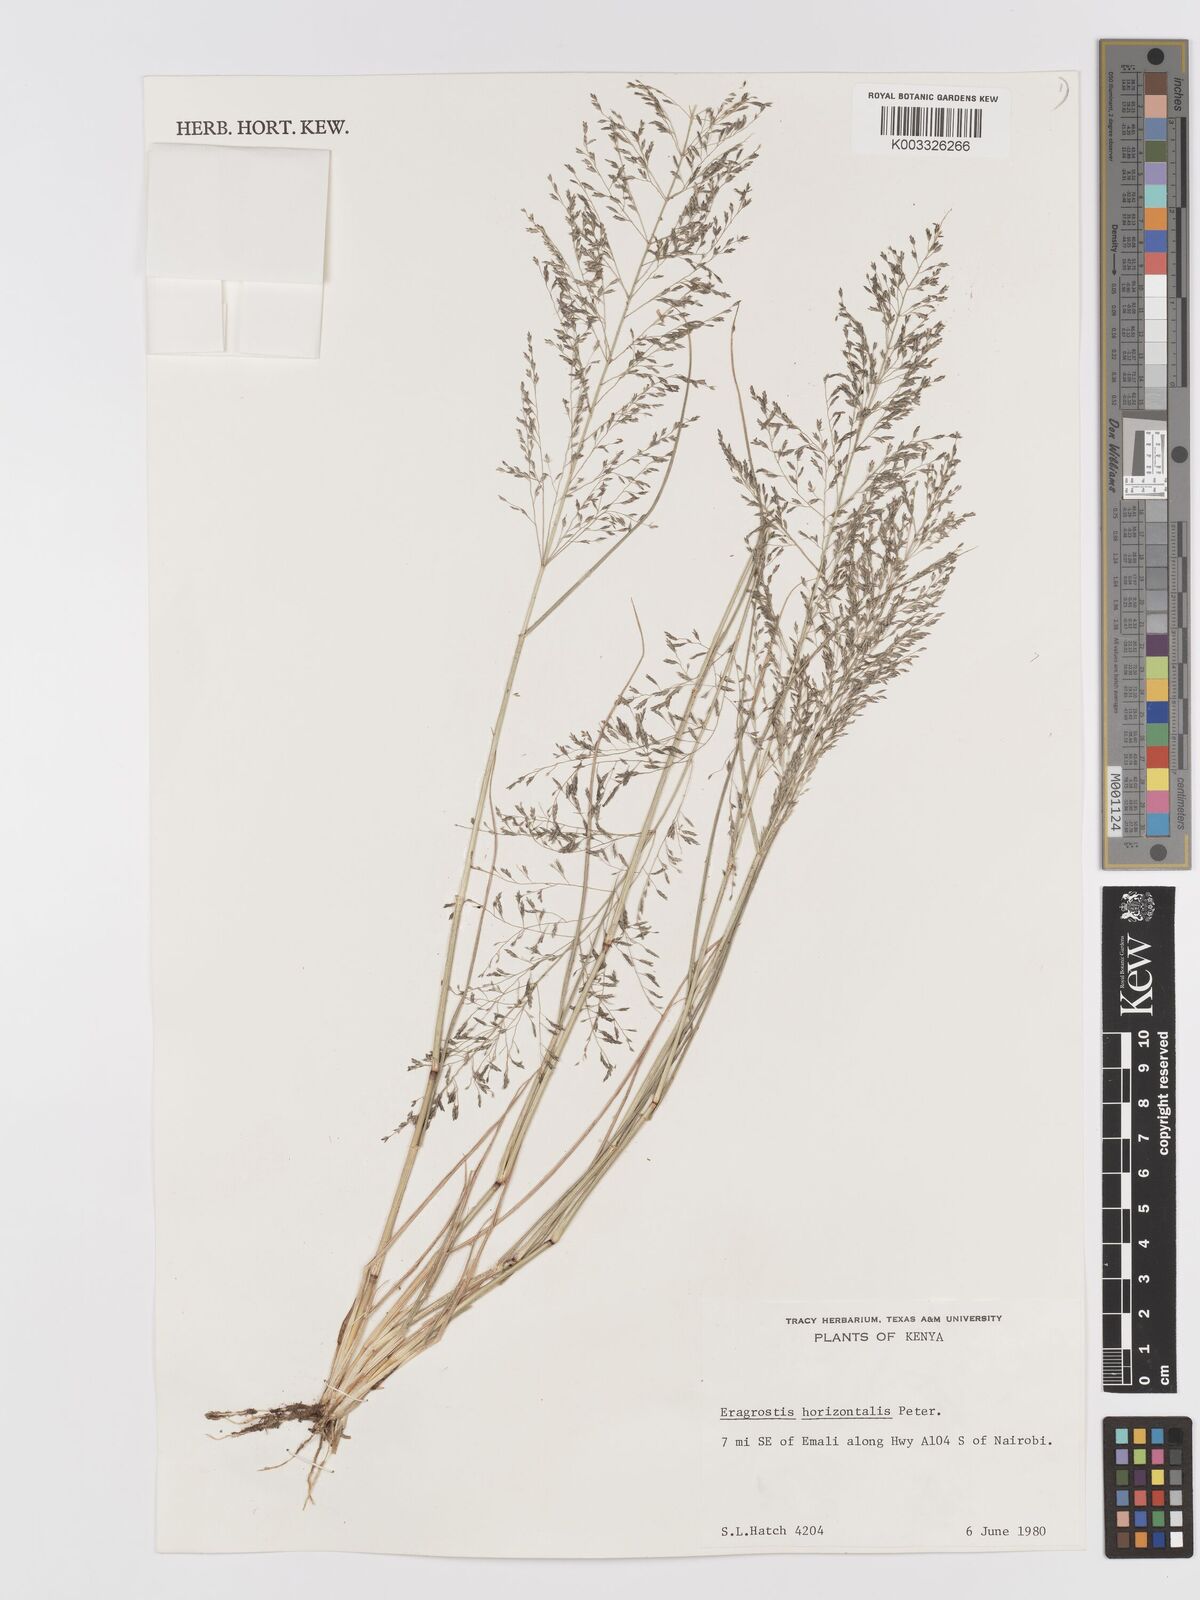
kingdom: Plantae
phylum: Tracheophyta
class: Liliopsida
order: Poales
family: Poaceae
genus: Eragrostis
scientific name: Eragrostis cylindriflora
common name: Cylinderflower lovegrass
